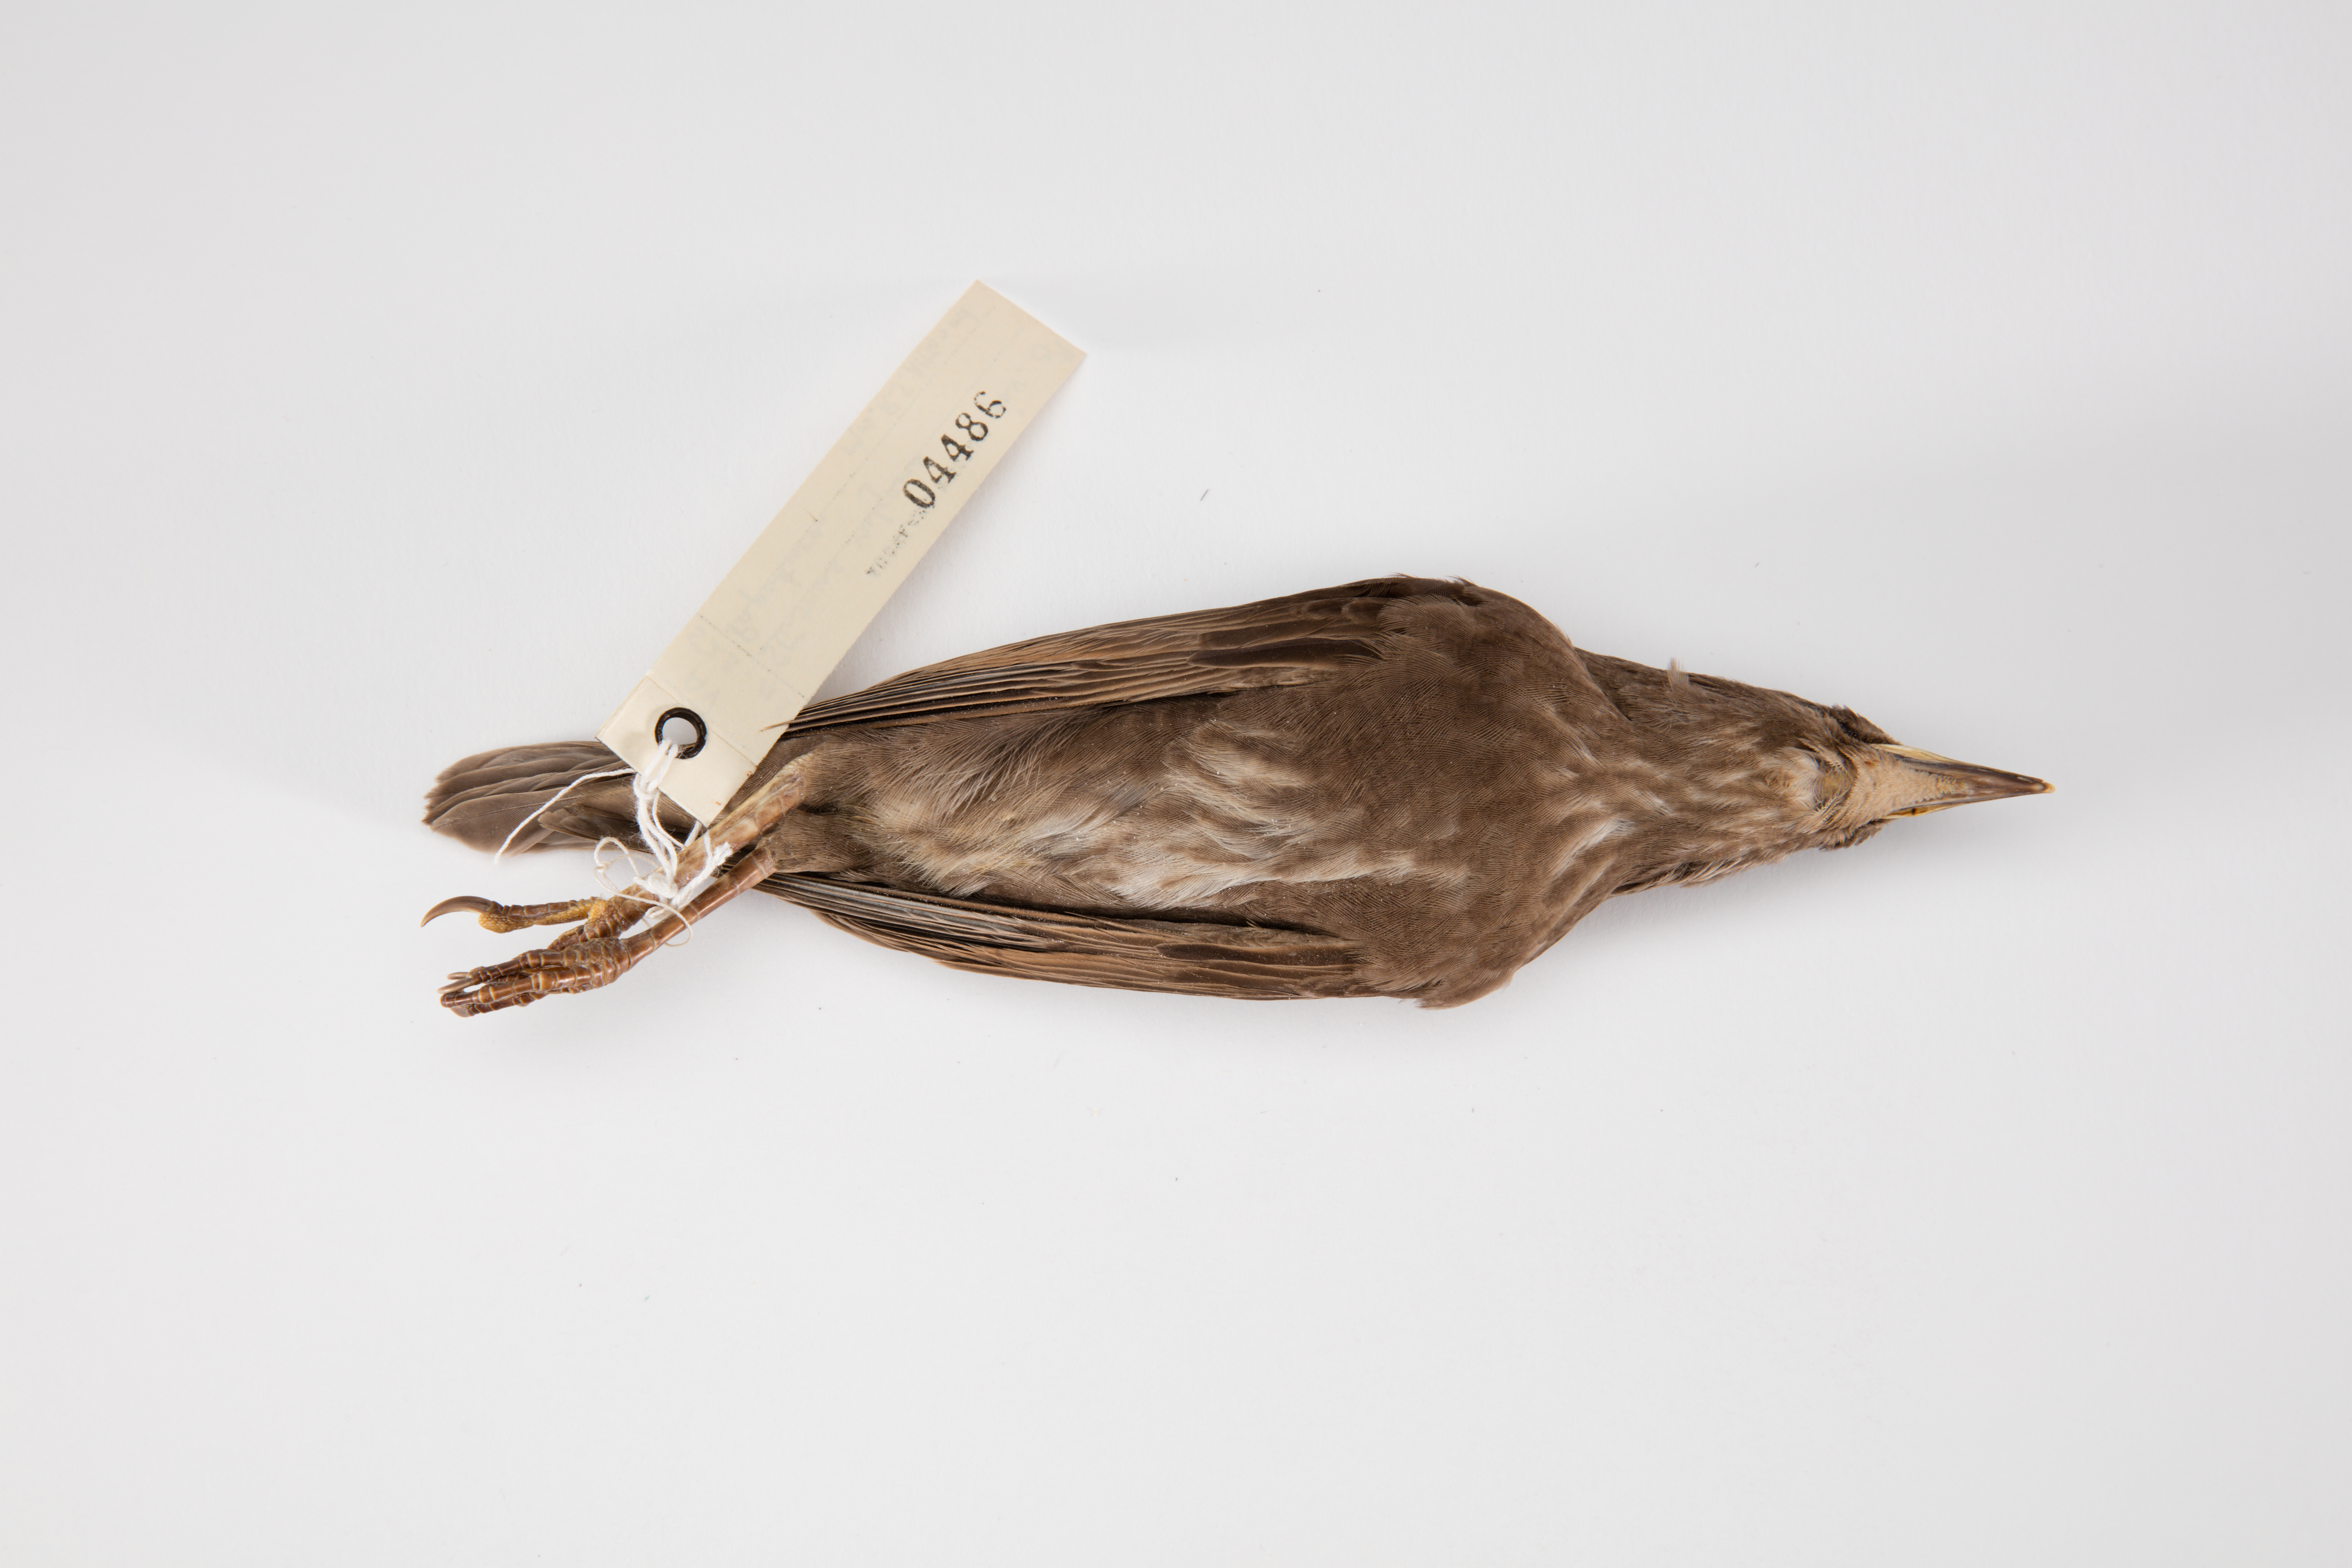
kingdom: Animalia
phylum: Chordata
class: Aves
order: Passeriformes
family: Sturnidae
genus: Sturnus
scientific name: Sturnus vulgaris
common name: Common starling
